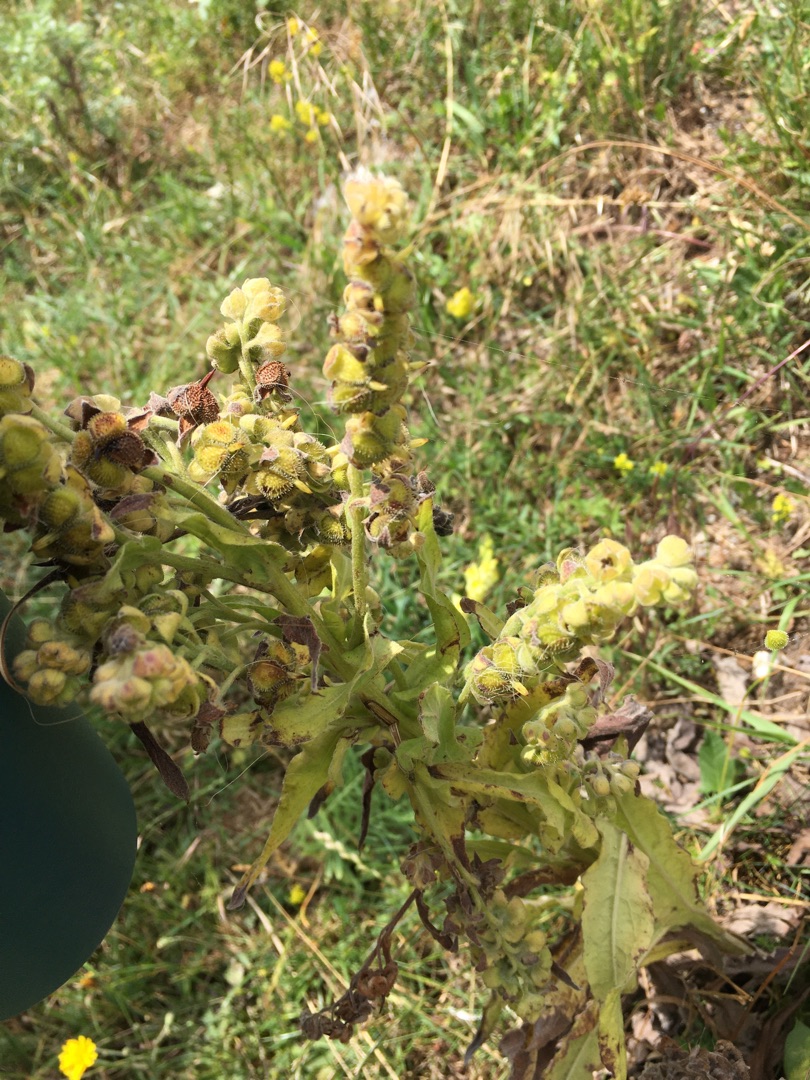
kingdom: Plantae
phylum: Tracheophyta
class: Magnoliopsida
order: Boraginales
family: Boraginaceae
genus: Cynoglossum
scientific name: Cynoglossum officinale
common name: Hundetunge
